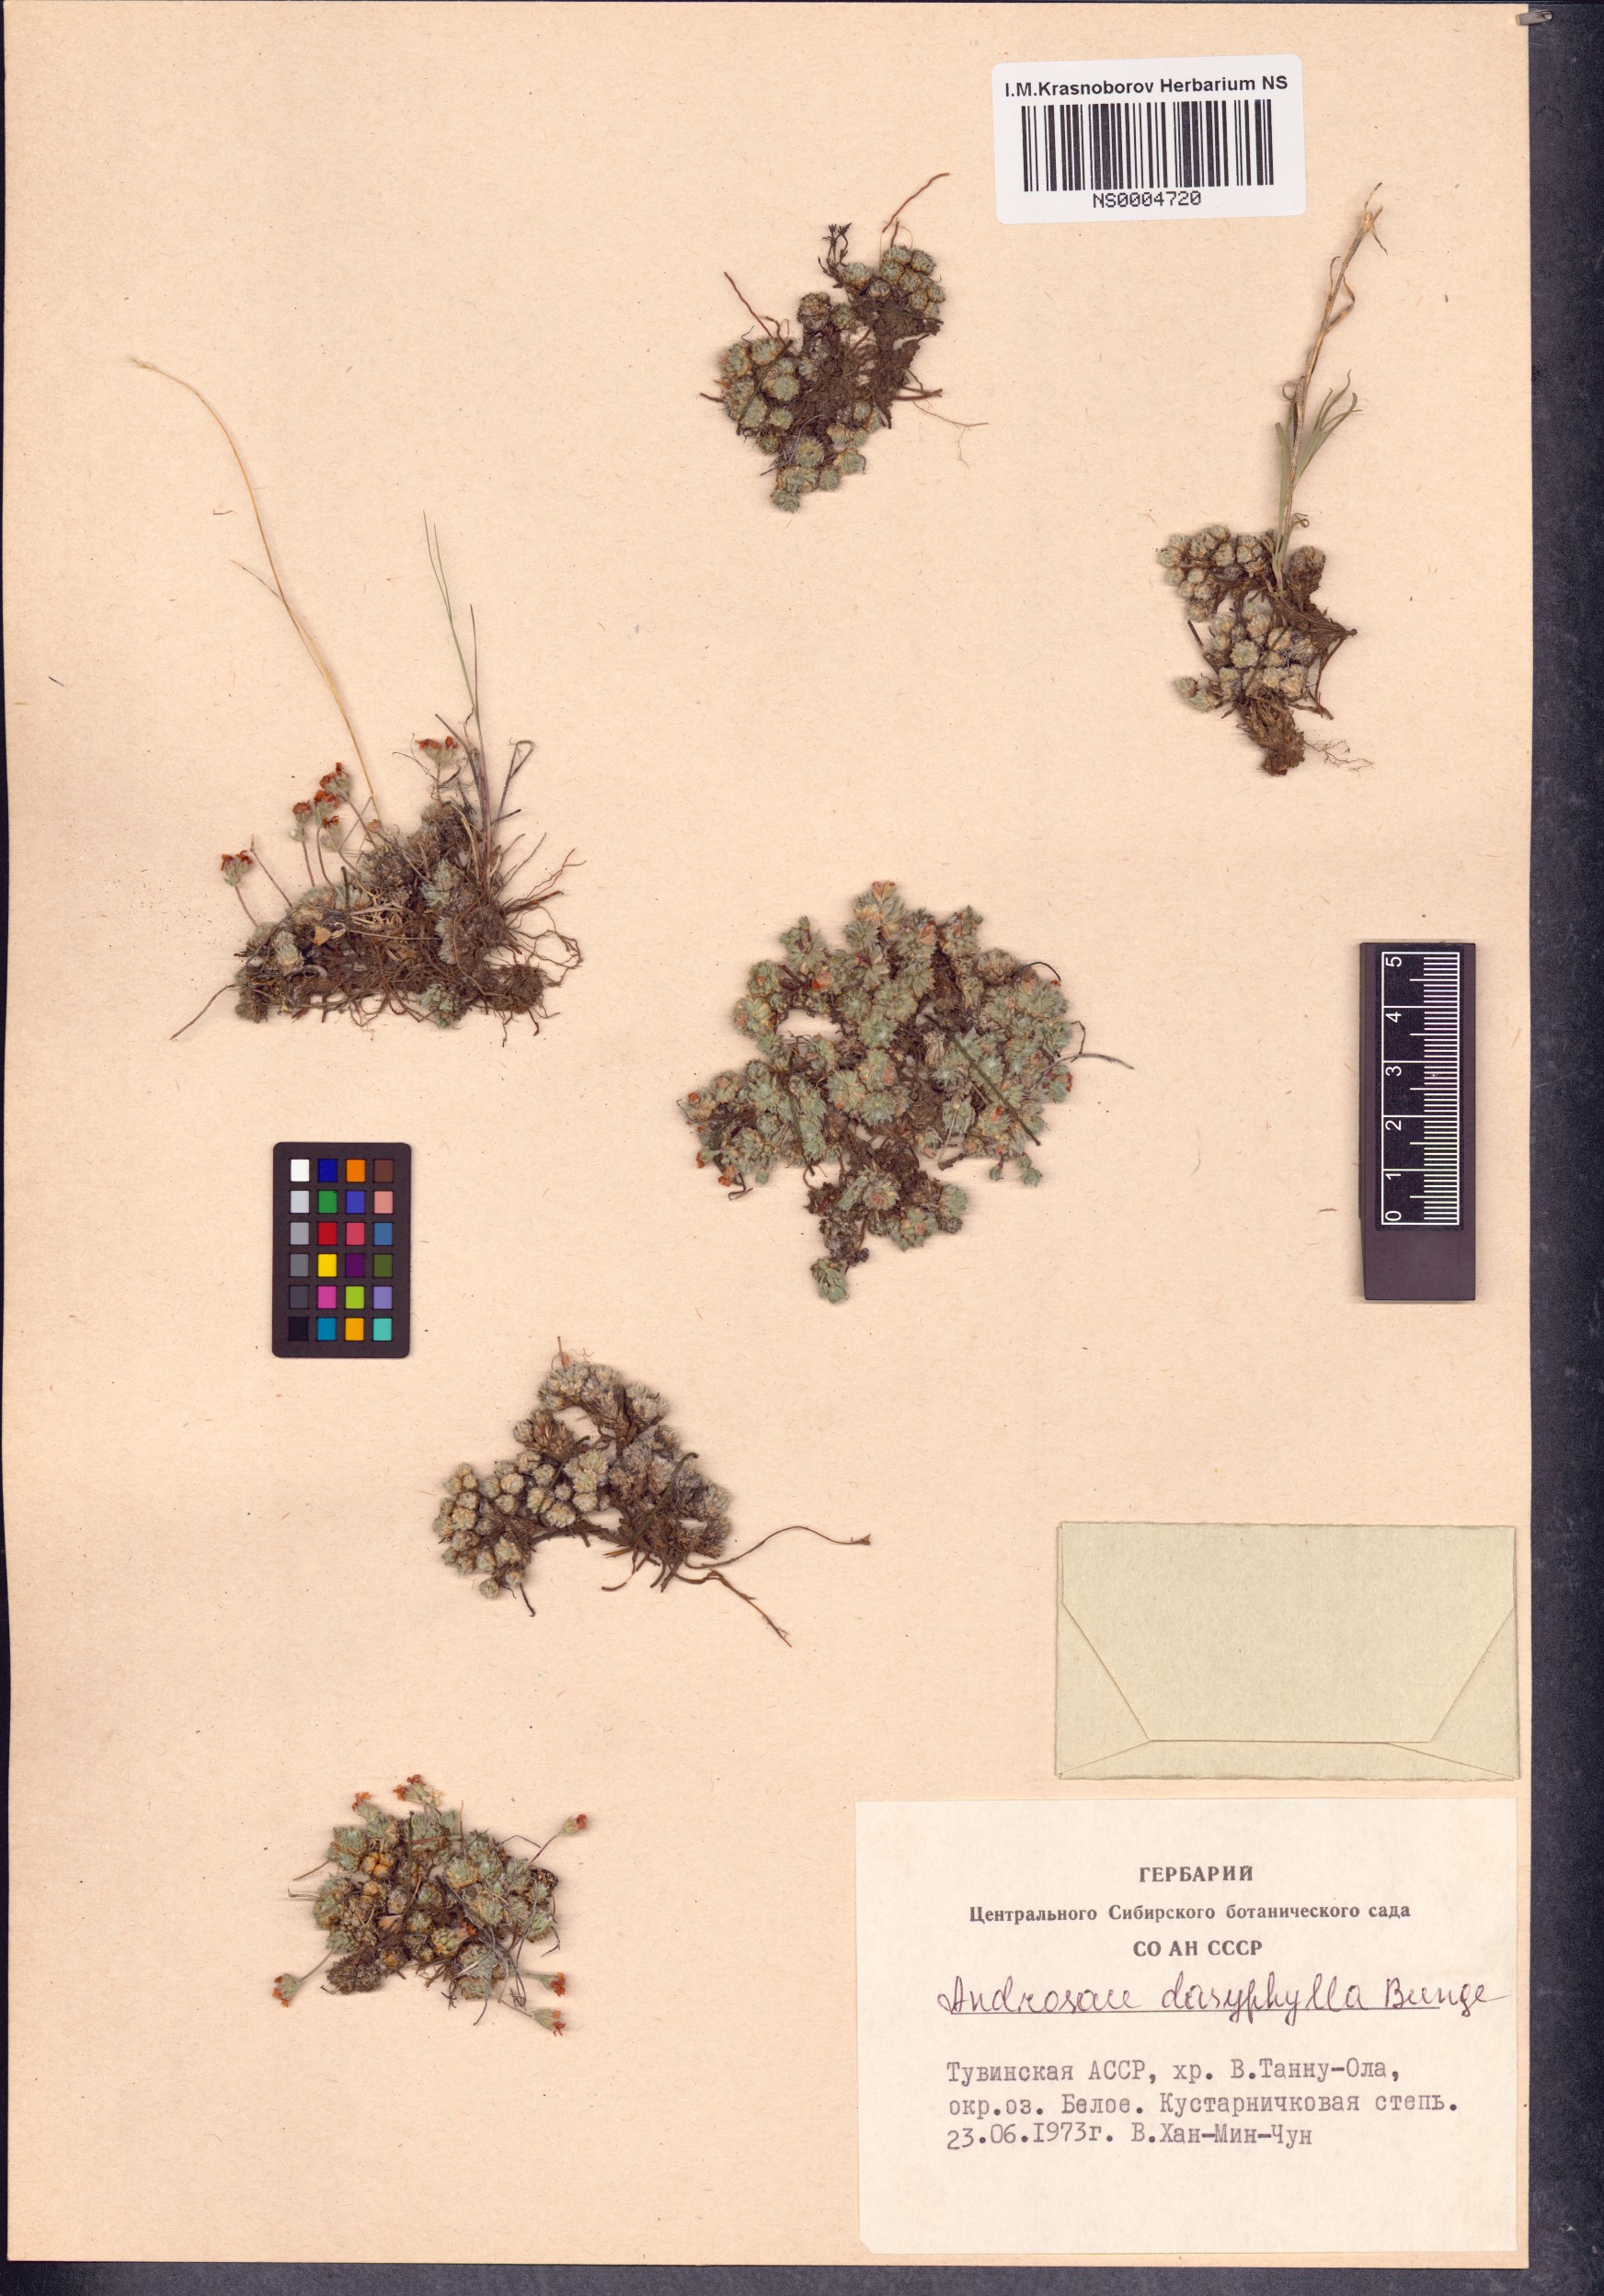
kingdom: Plantae
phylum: Tracheophyta
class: Magnoliopsida
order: Ericales
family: Primulaceae
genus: Androsace
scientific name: Androsace dasyphylla
